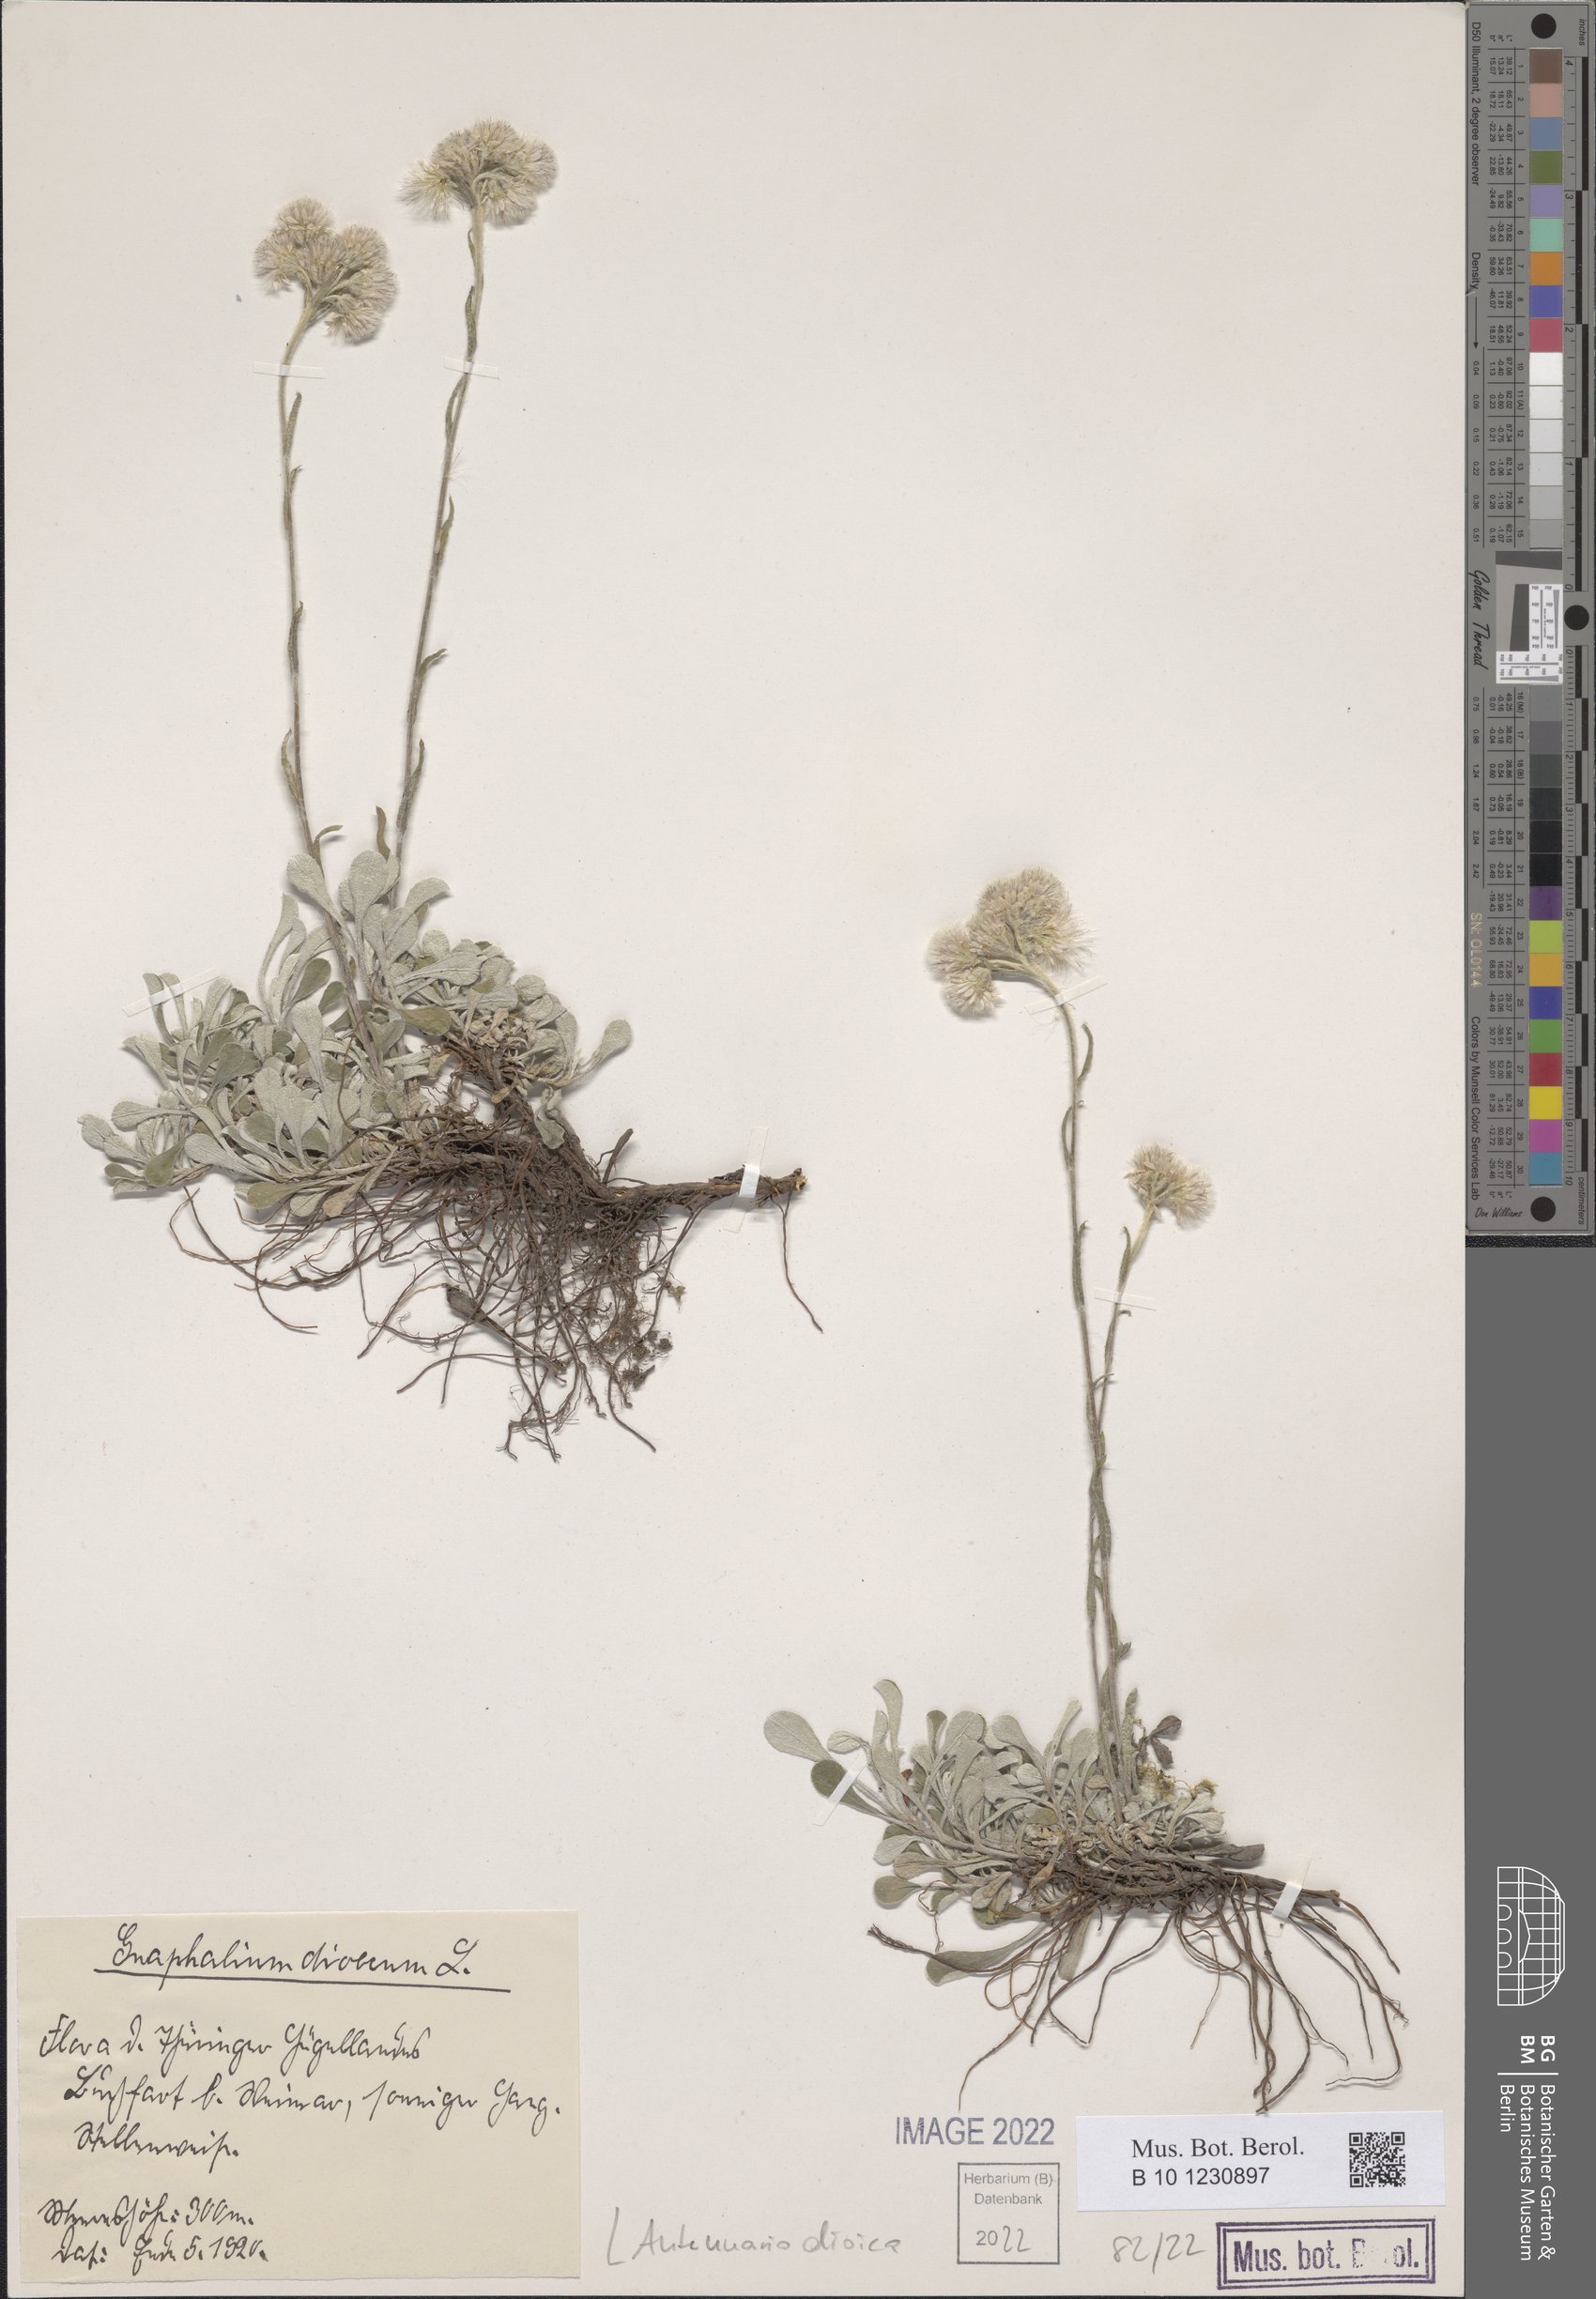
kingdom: Plantae
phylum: Tracheophyta
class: Magnoliopsida
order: Asterales
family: Asteraceae
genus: Antennaria
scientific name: Antennaria dioica
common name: Mountain everlasting
